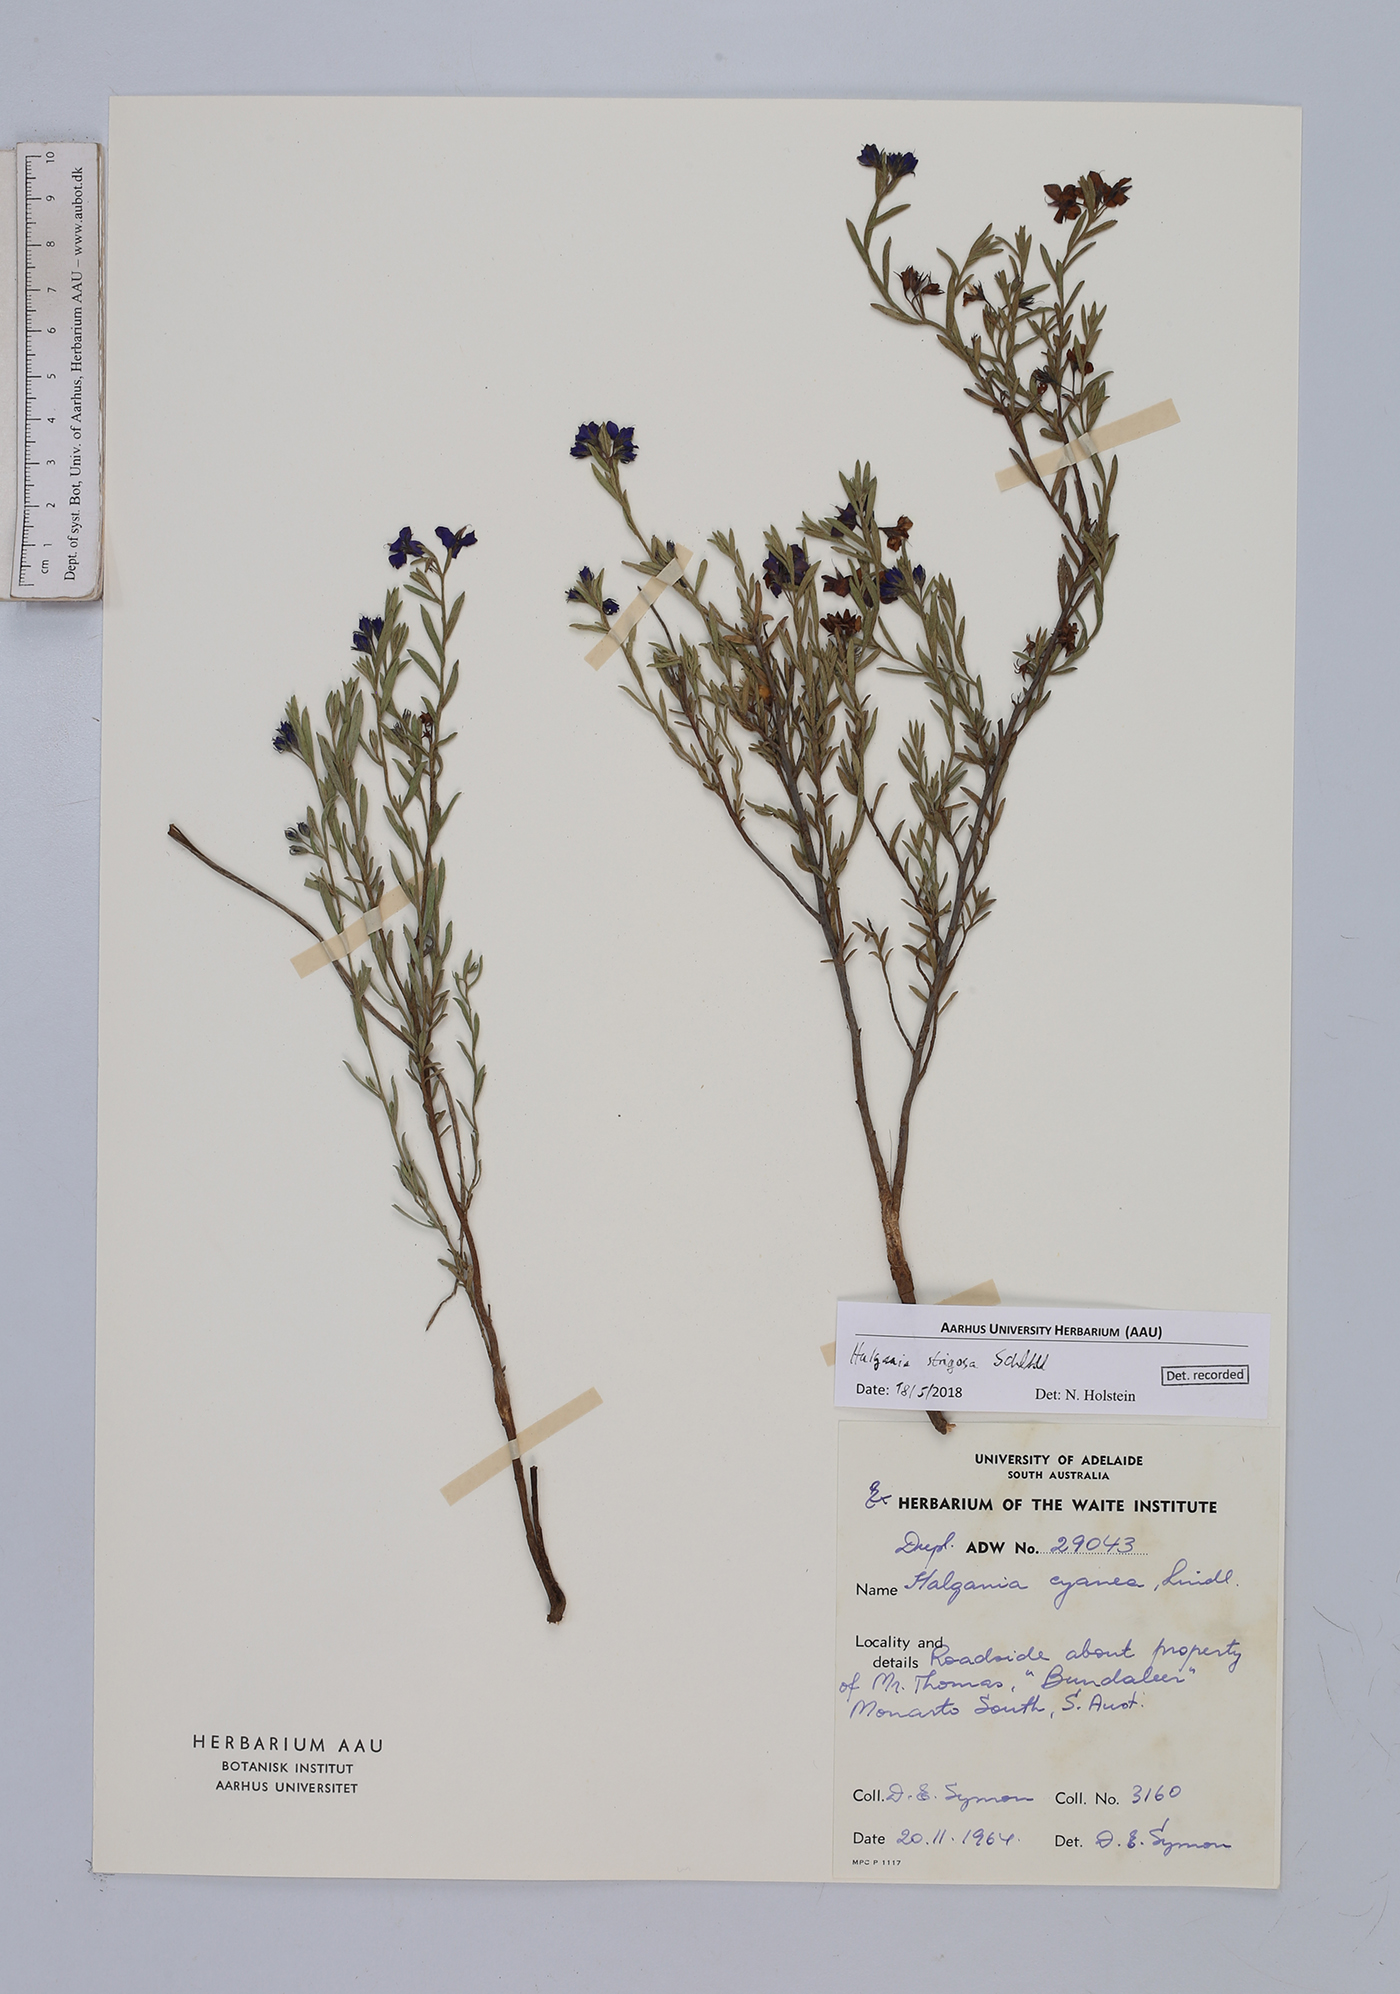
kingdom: Plantae
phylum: Tracheophyta
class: Magnoliopsida
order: Boraginales
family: Ehretiaceae
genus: Halgania
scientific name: Halgania cyanea
